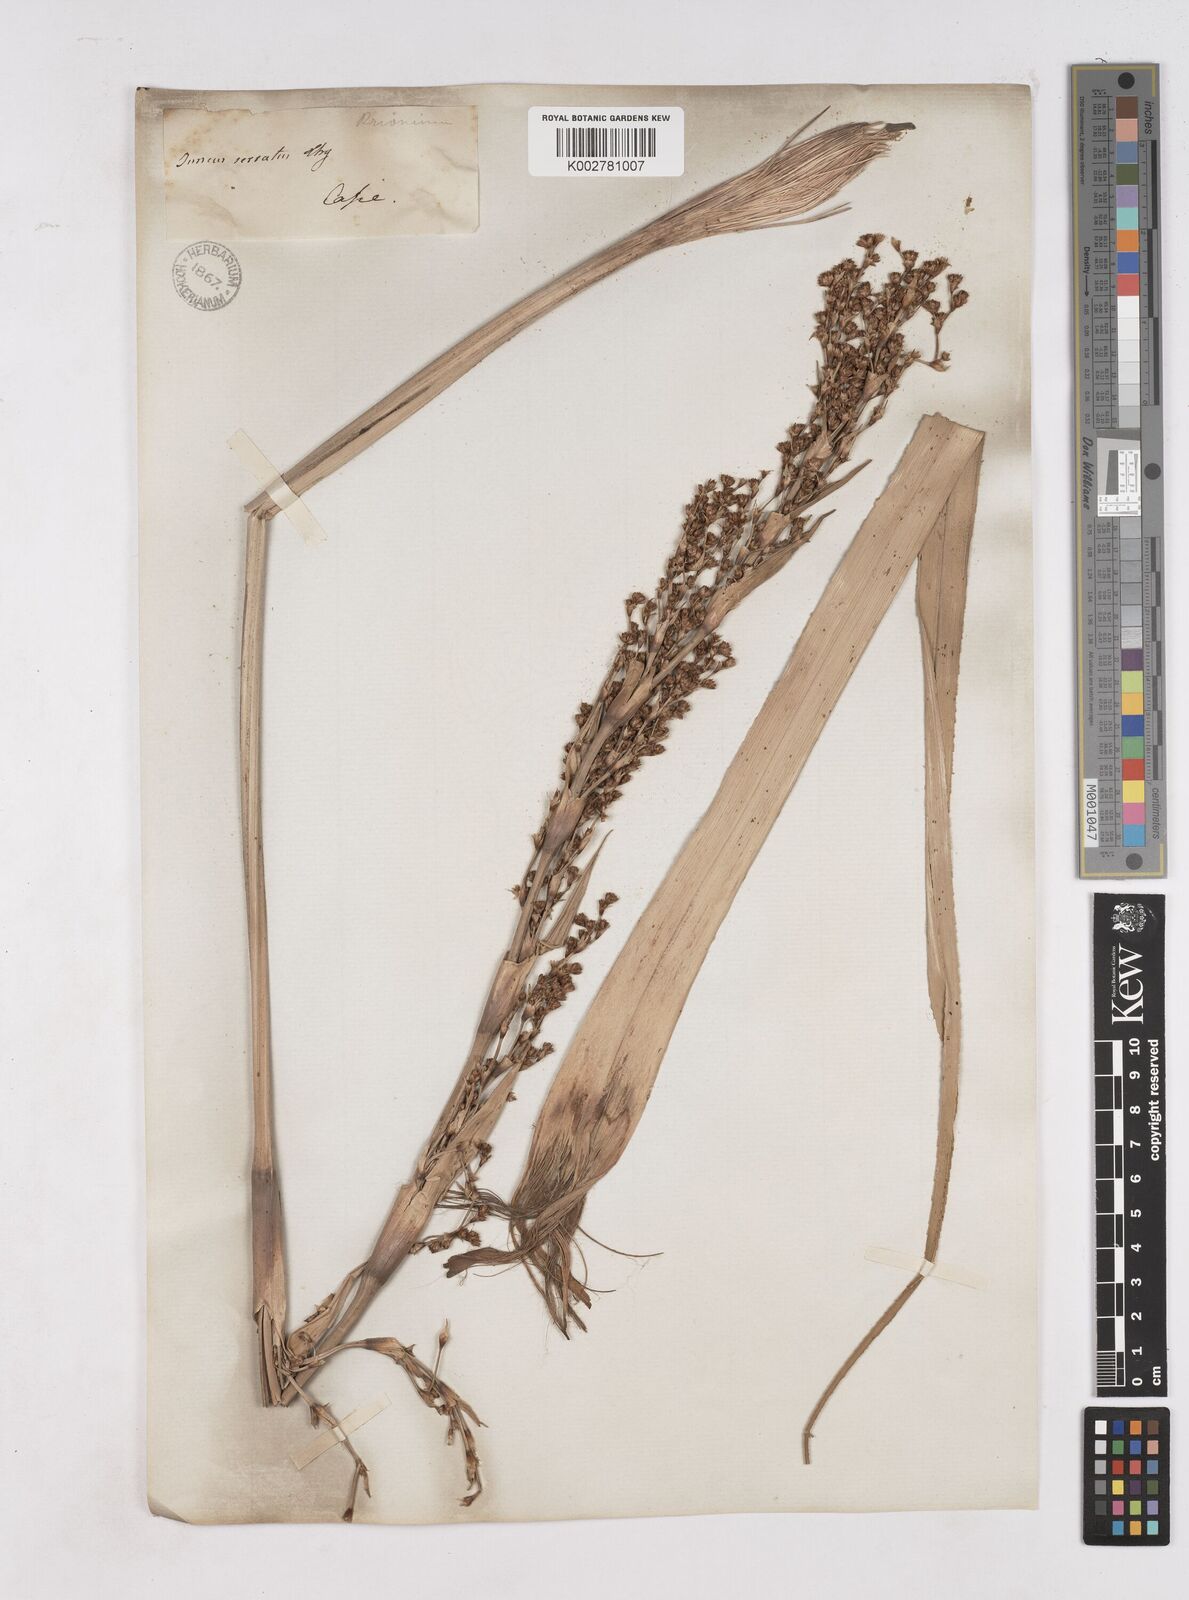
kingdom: Plantae
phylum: Tracheophyta
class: Liliopsida
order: Poales
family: Thurniaceae
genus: Prionium
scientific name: Prionium serratum
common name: Palmiet
